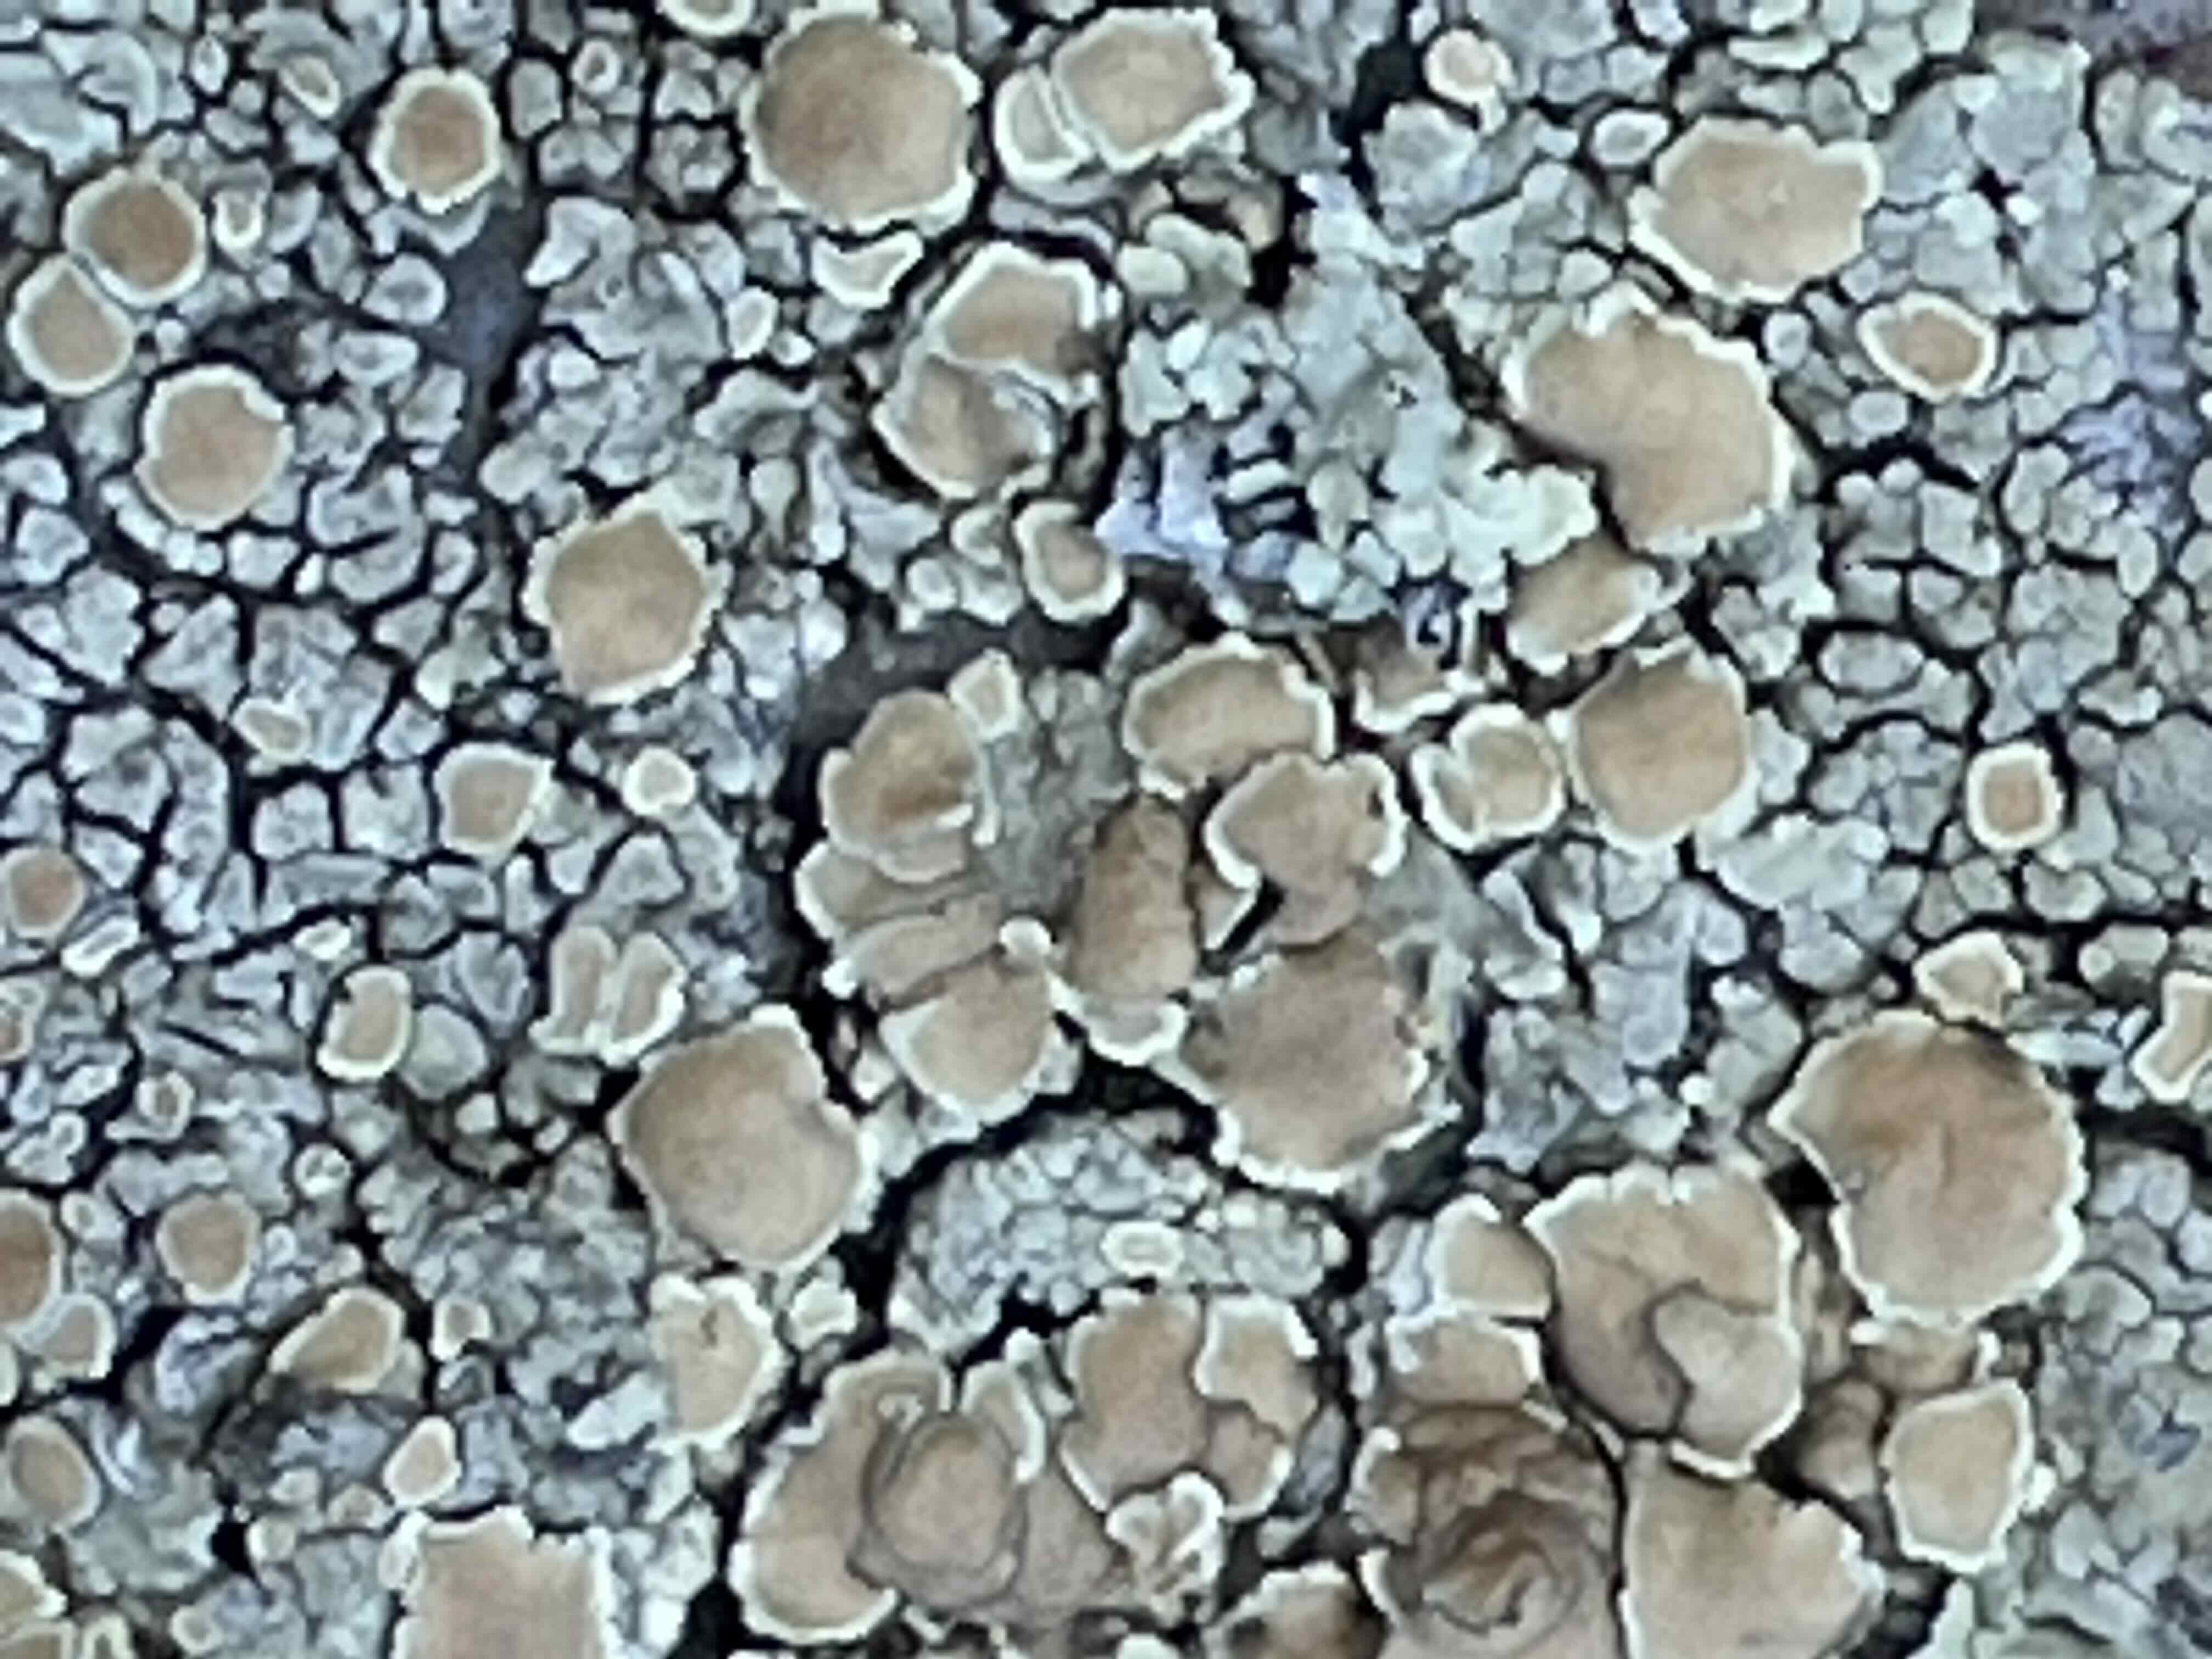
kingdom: Fungi
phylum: Ascomycota
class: Lecanoromycetes
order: Lecanorales
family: Lecanoraceae
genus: Protoparmeliopsis
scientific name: Protoparmeliopsis muralis
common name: randfliget kantskivelav
